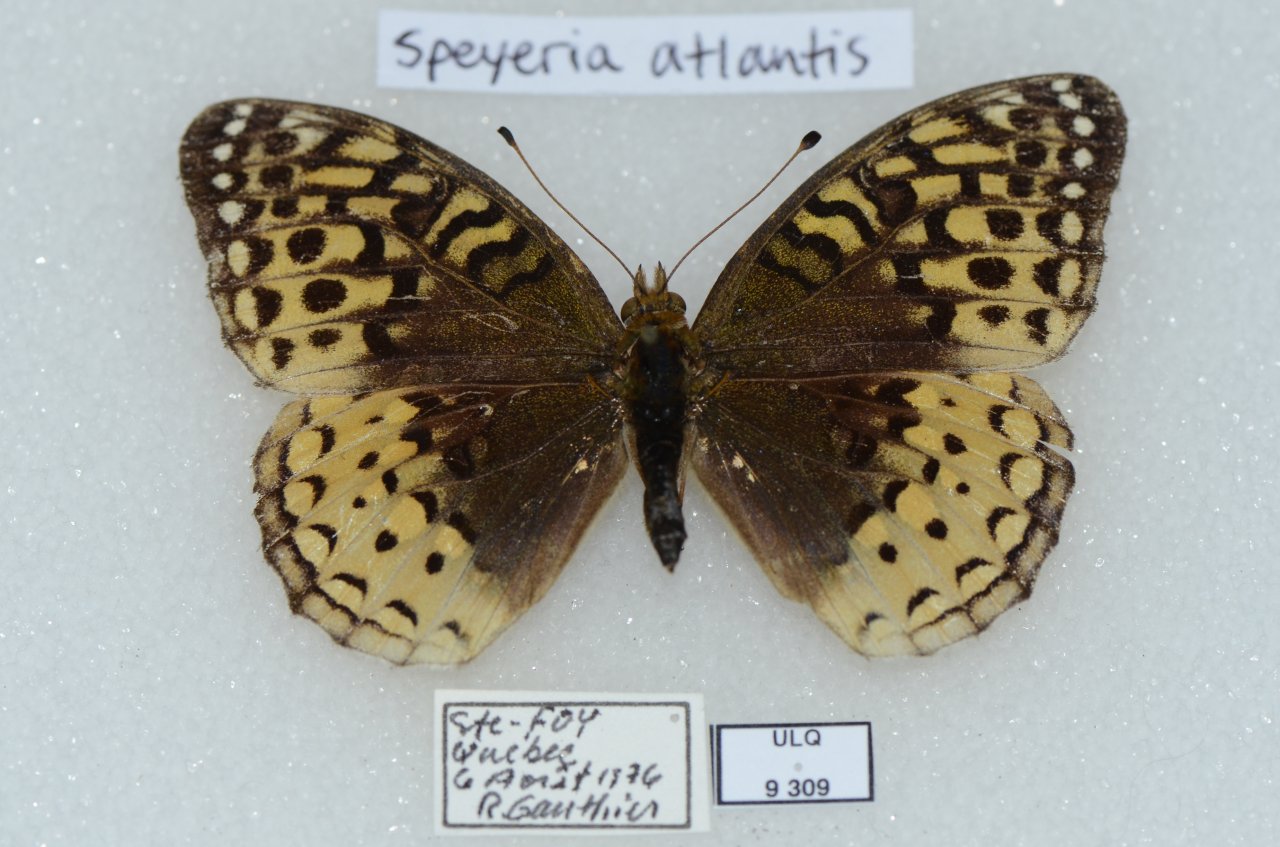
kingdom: Animalia
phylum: Arthropoda
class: Insecta
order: Lepidoptera
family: Nymphalidae
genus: Speyeria
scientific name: Speyeria cybele
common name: Great Spangled Fritillary
